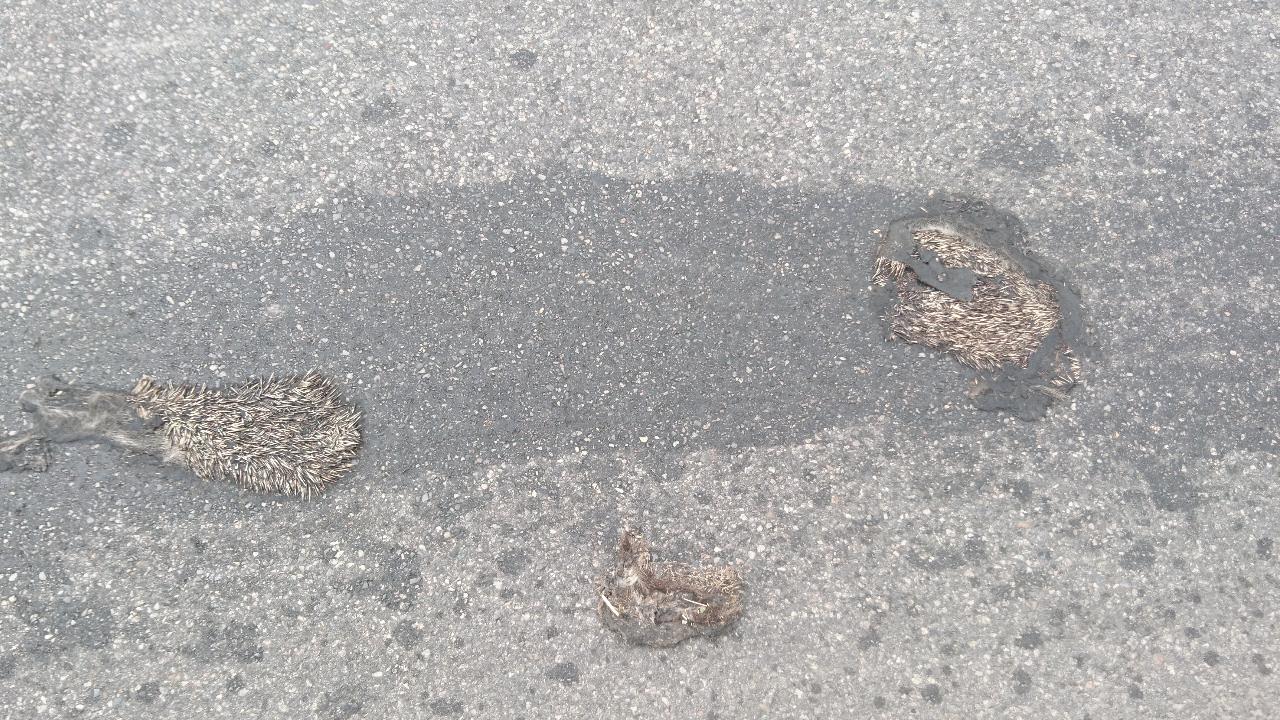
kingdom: Animalia
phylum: Chordata
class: Mammalia
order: Erinaceomorpha
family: Erinaceidae
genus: Erinaceus
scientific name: Erinaceus
